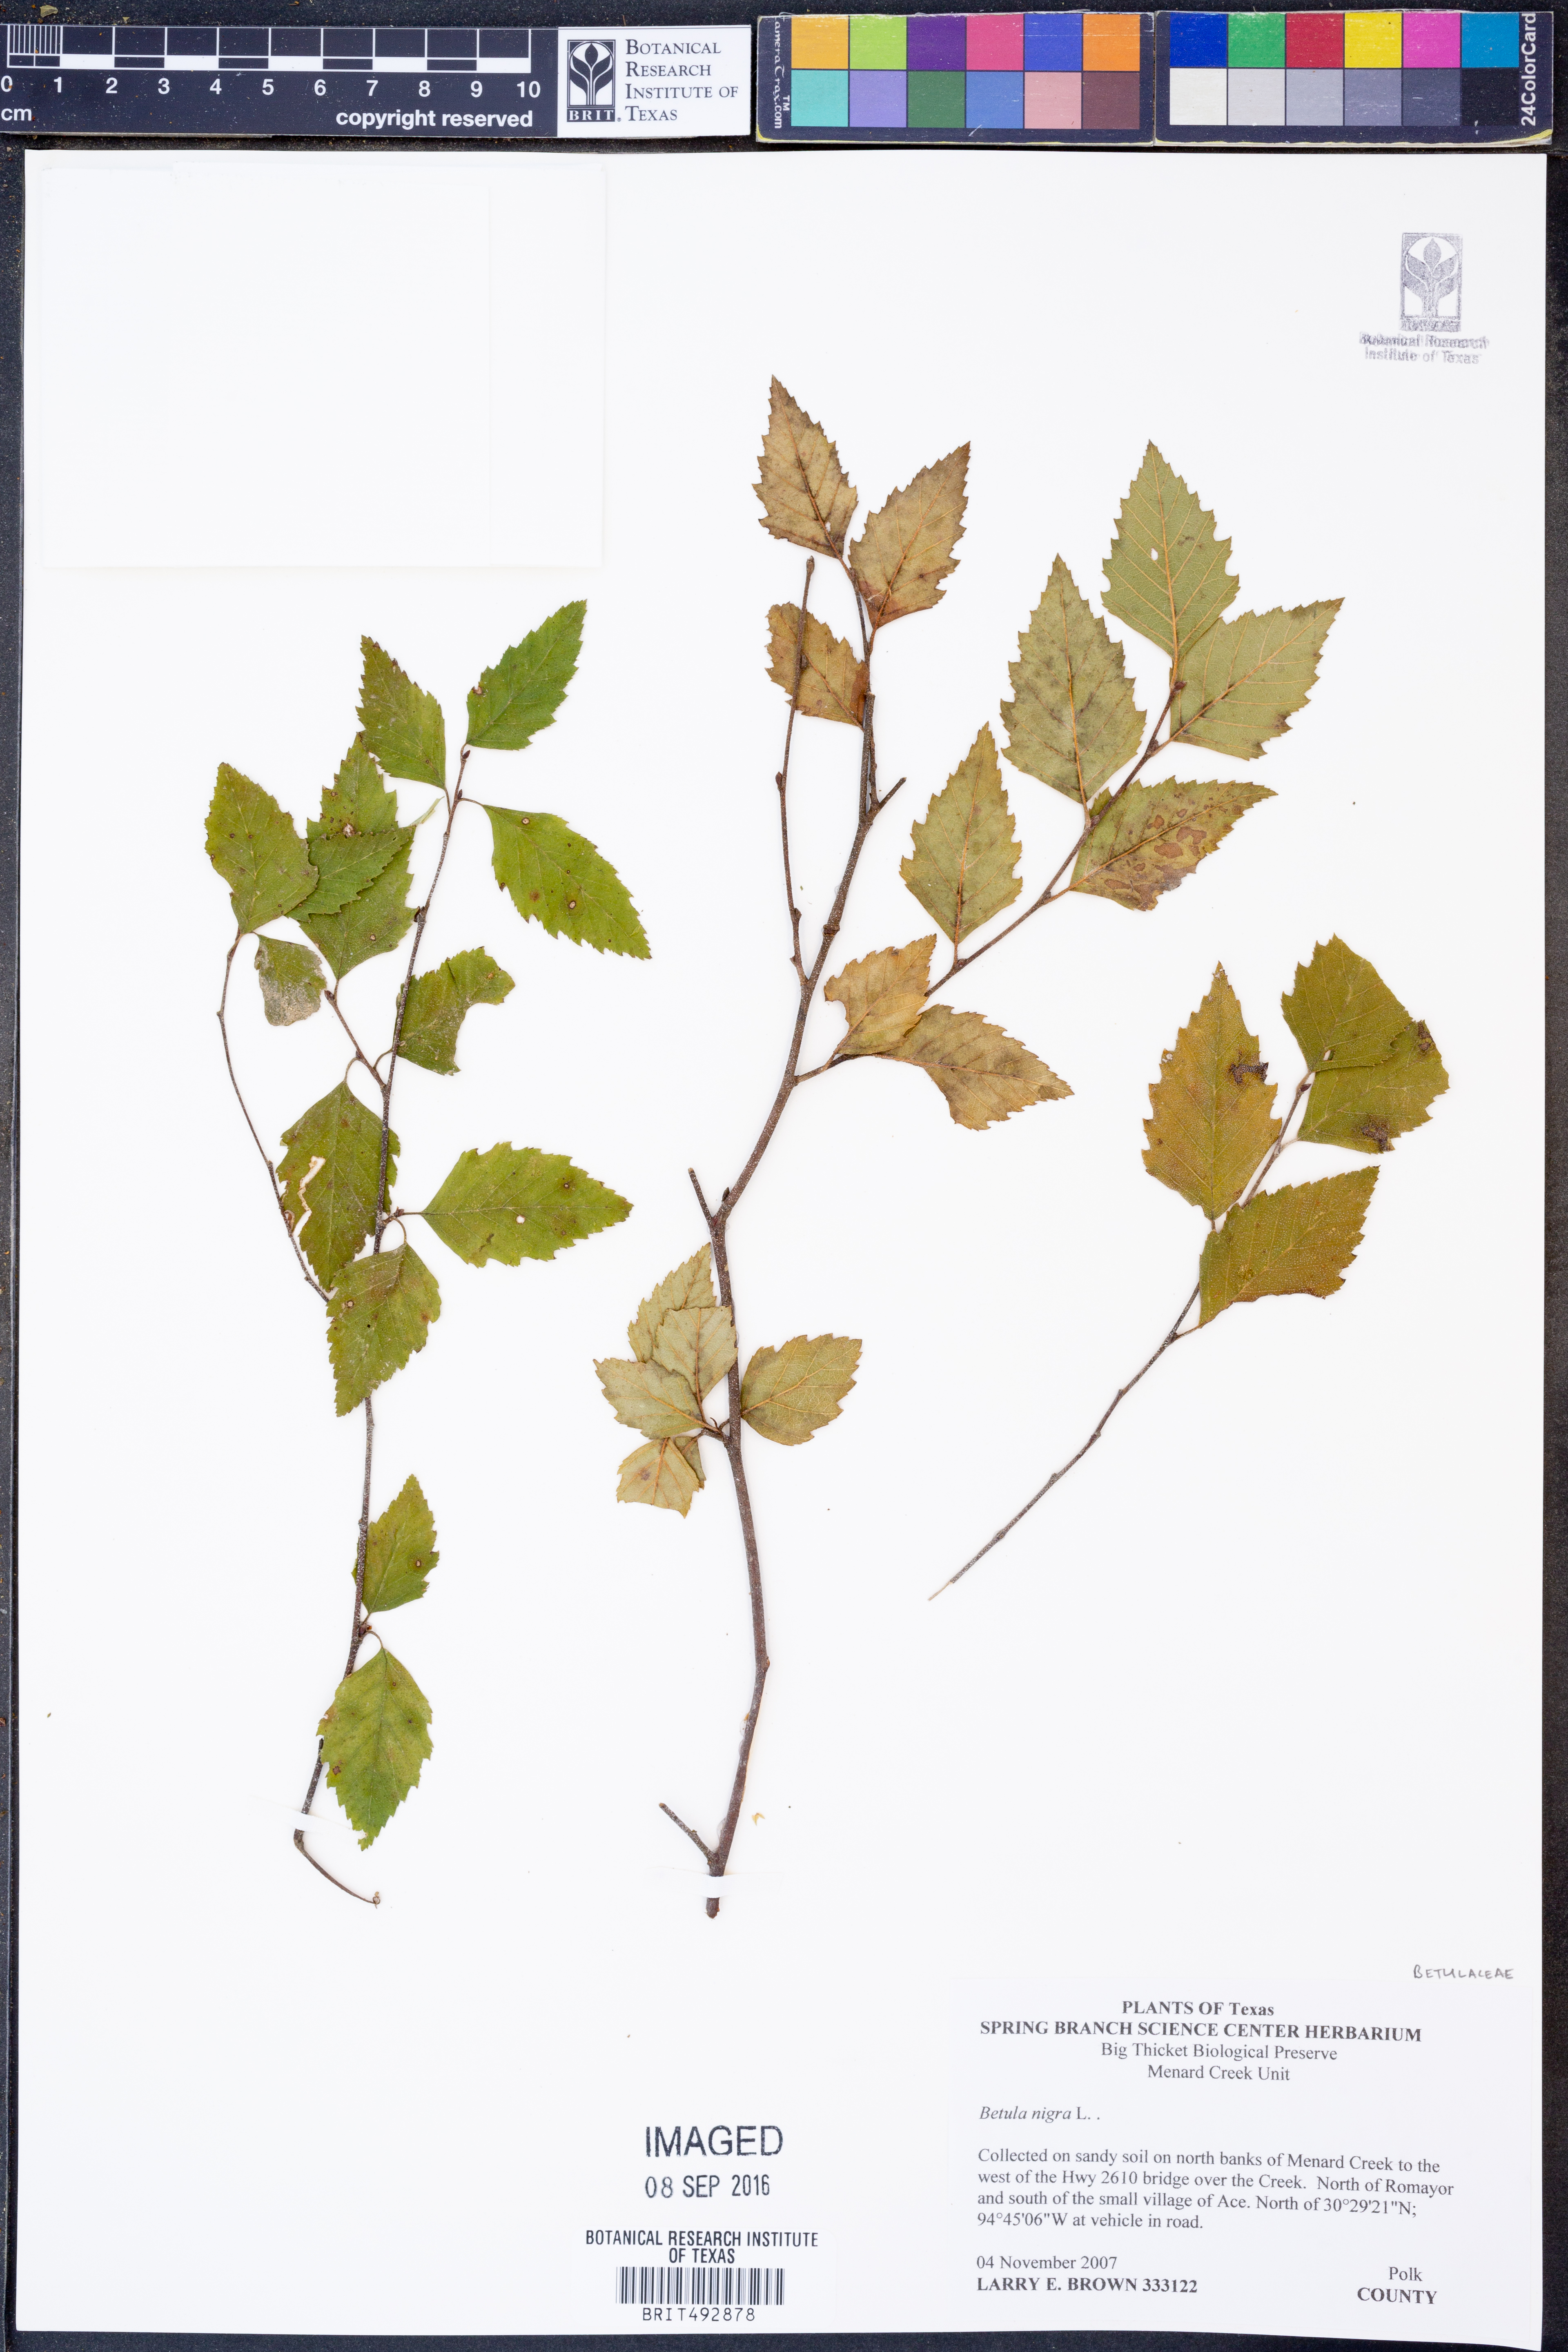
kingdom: Plantae
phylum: Tracheophyta
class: Magnoliopsida
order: Fagales
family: Betulaceae
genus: Betula
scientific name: Betula nigra
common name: Black birch
